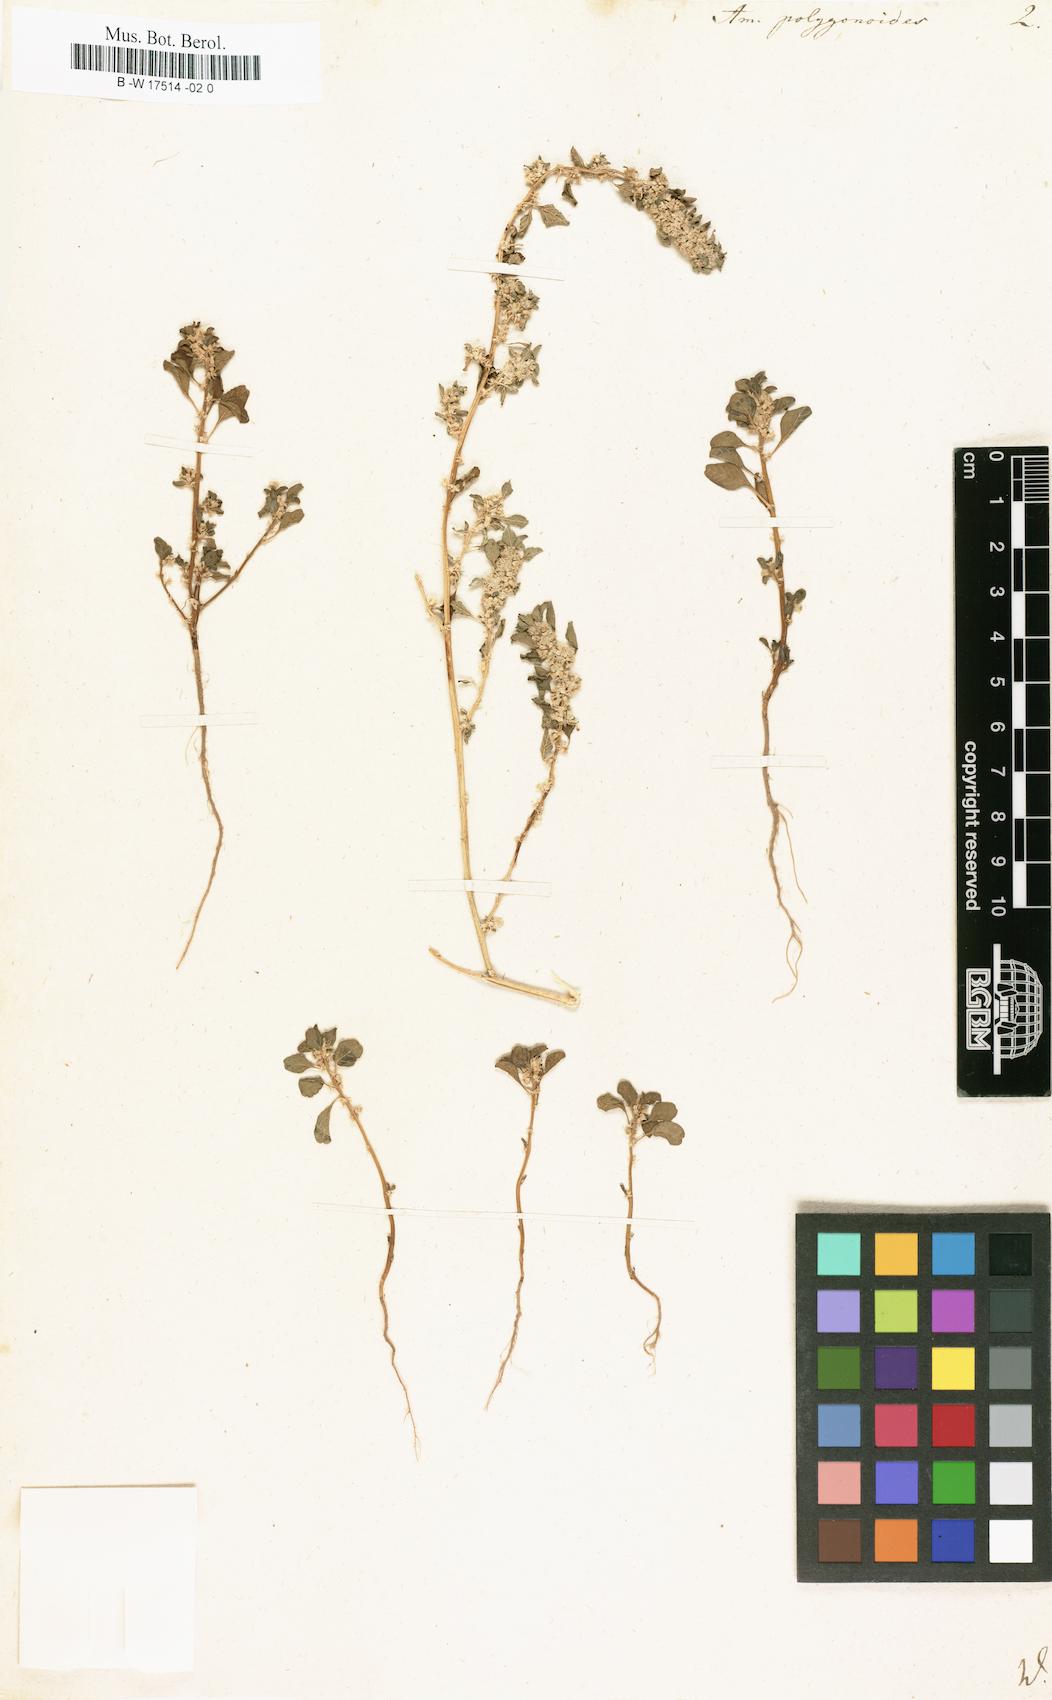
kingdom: Plantae
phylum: Tracheophyta
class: Magnoliopsida
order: Caryophyllales
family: Amaranthaceae
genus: Amaranthus
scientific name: Amaranthus polygonoides
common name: Tropical amaranth
